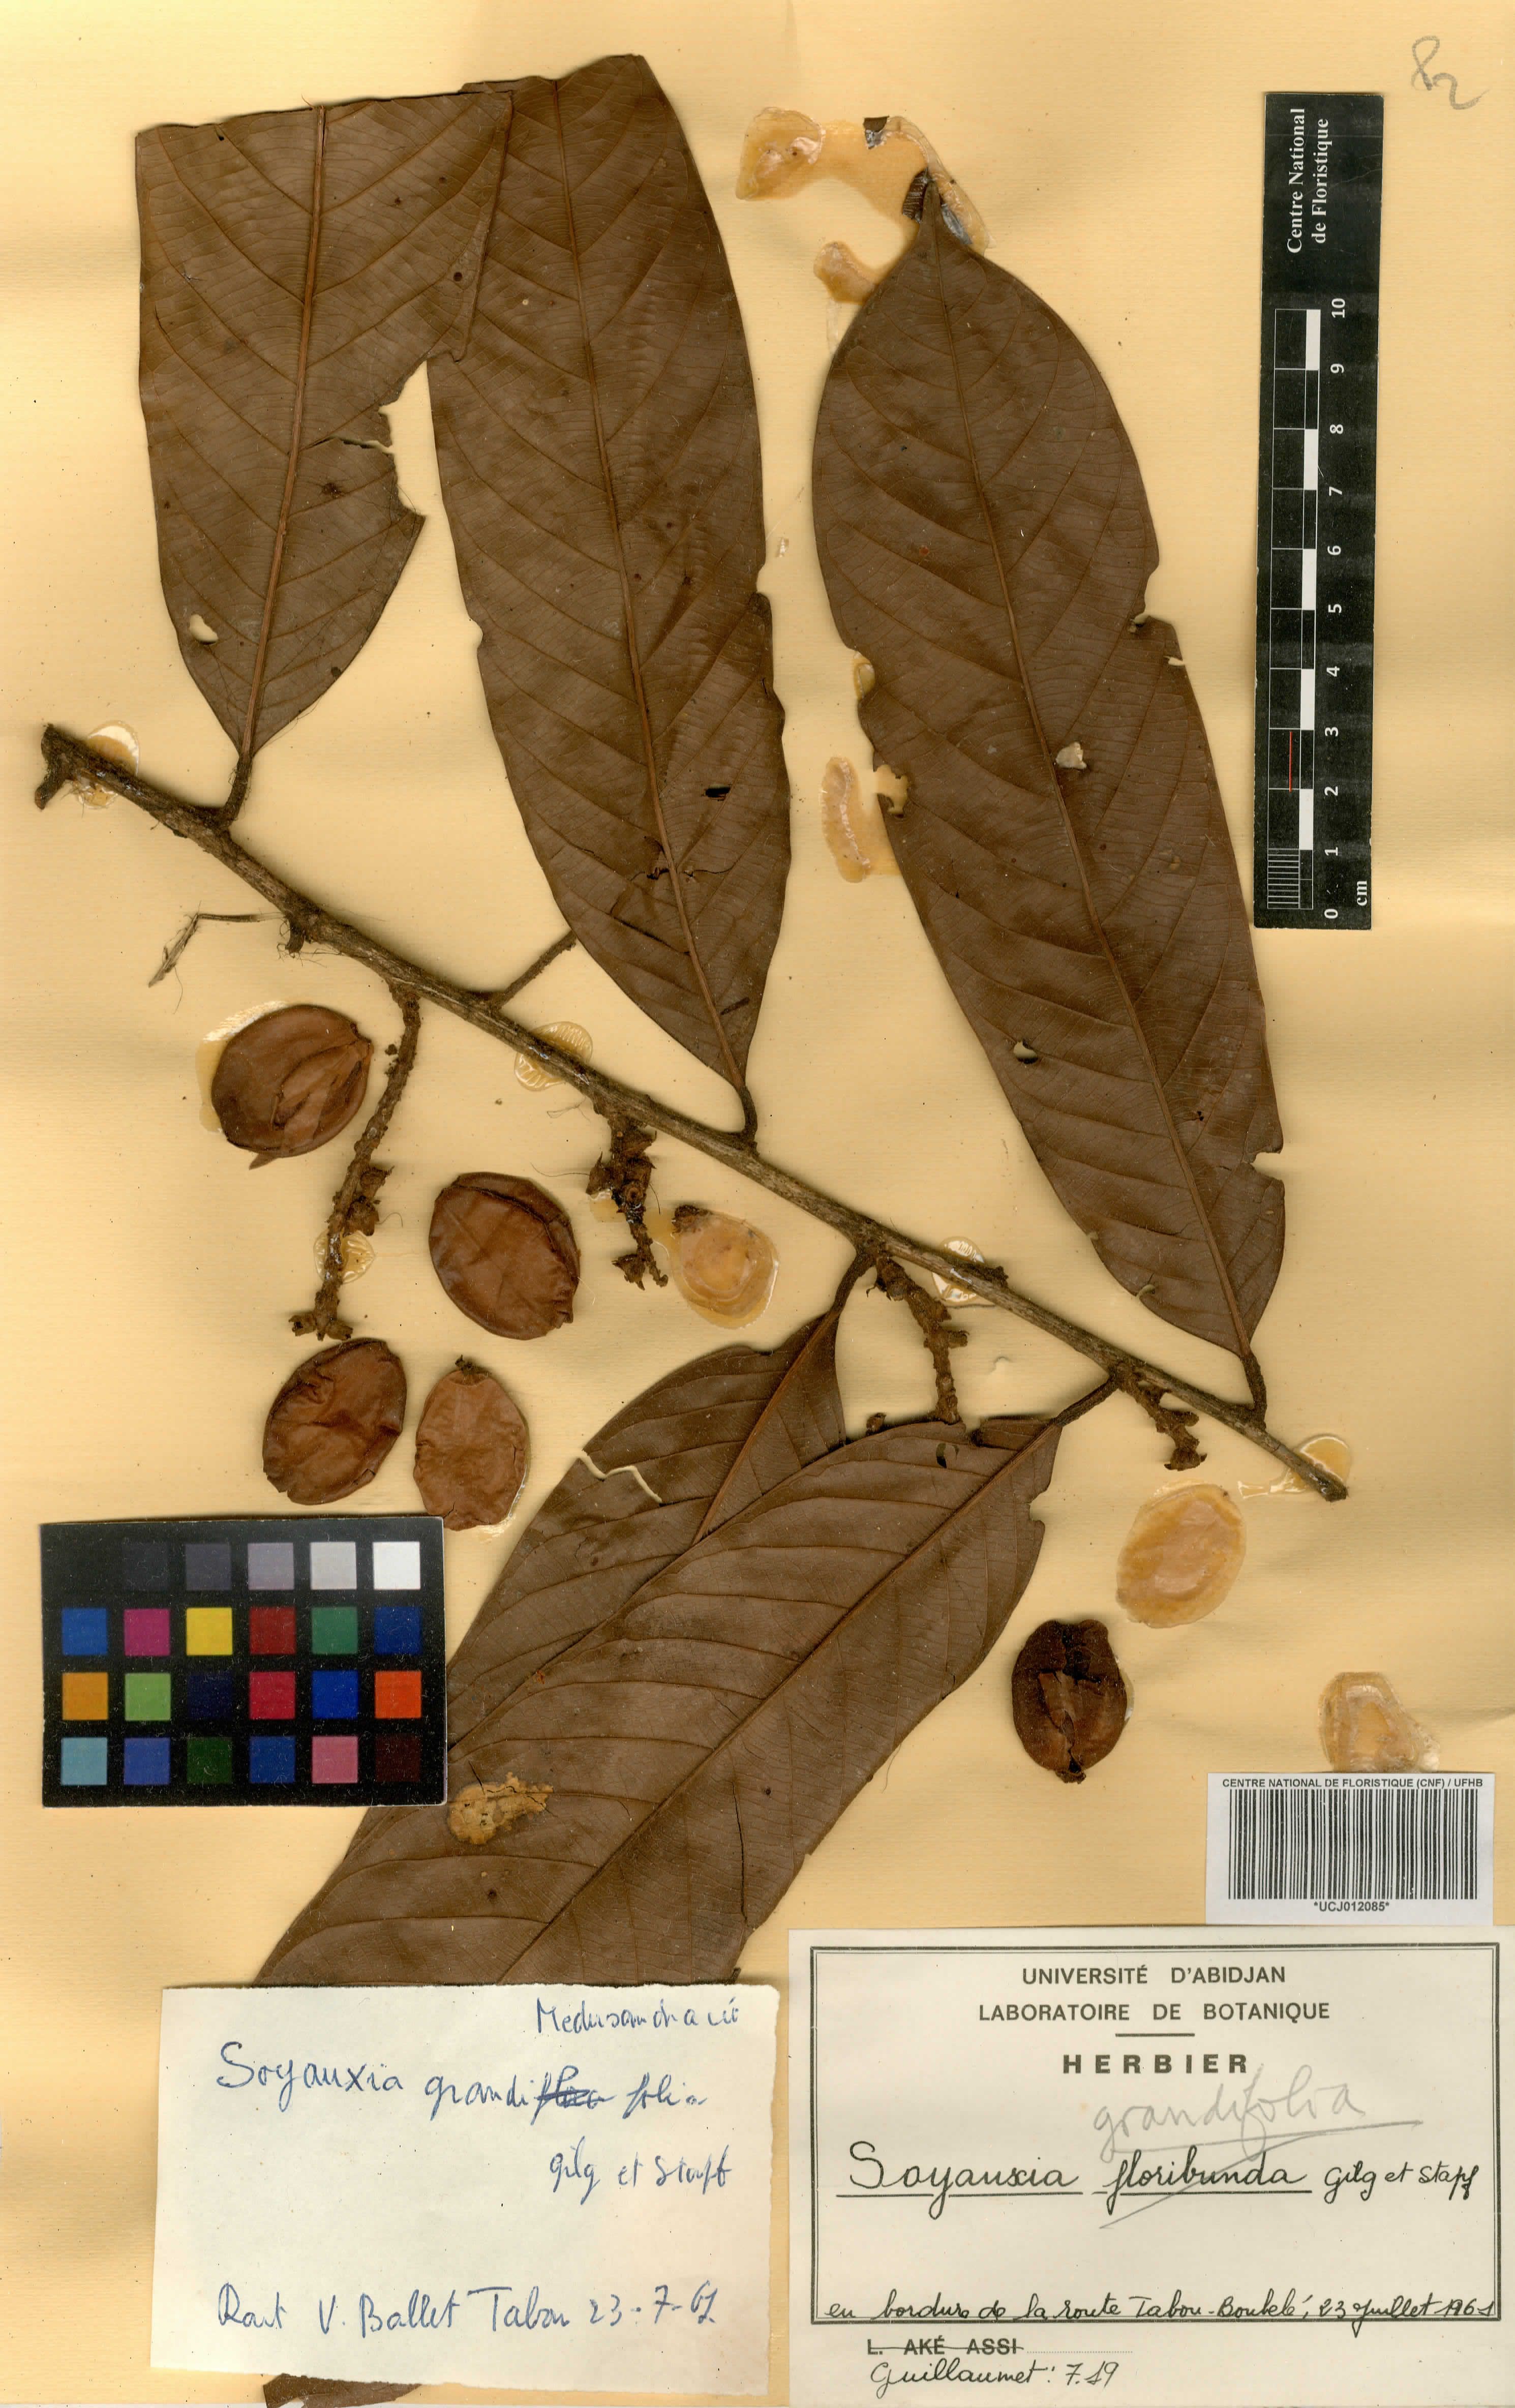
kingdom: Plantae
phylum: Tracheophyta
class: Magnoliopsida
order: Saxifragales
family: Peridiscaceae
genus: Soyauxia
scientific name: Soyauxia grandifolia
